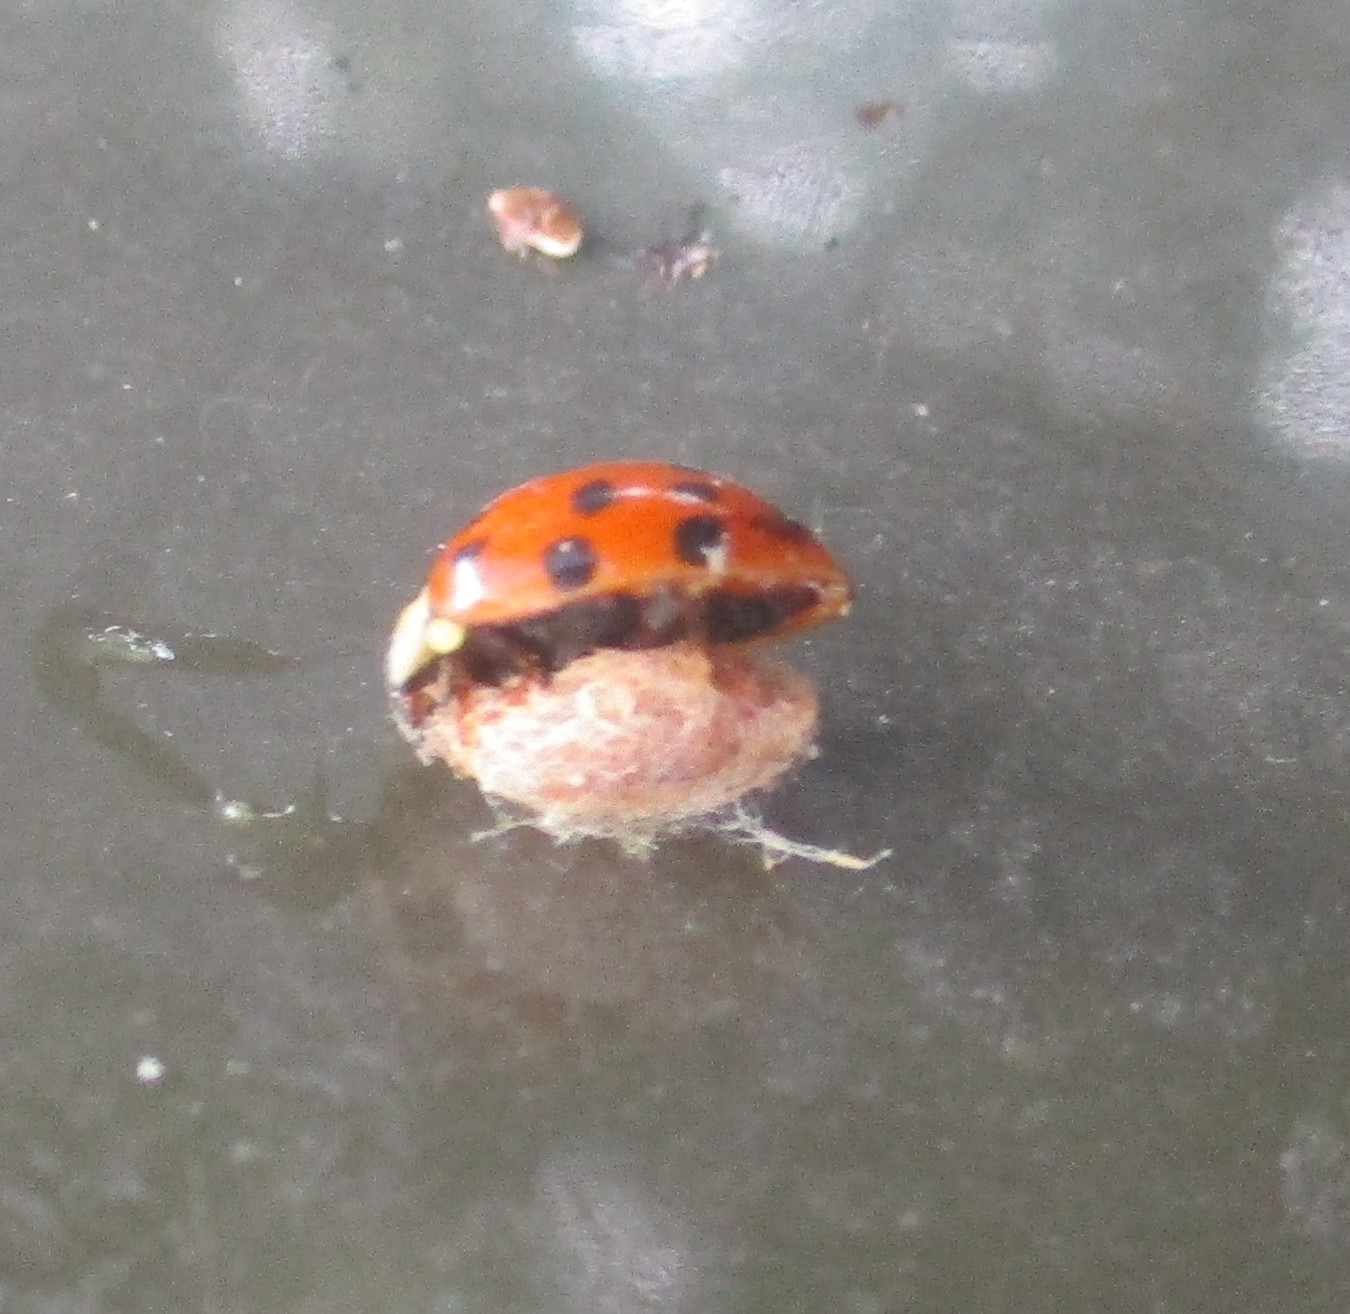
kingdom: Animalia
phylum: Arthropoda
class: Insecta
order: Hymenoptera
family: Braconidae
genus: Dinocampus
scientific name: Dinocampus coccinellae
